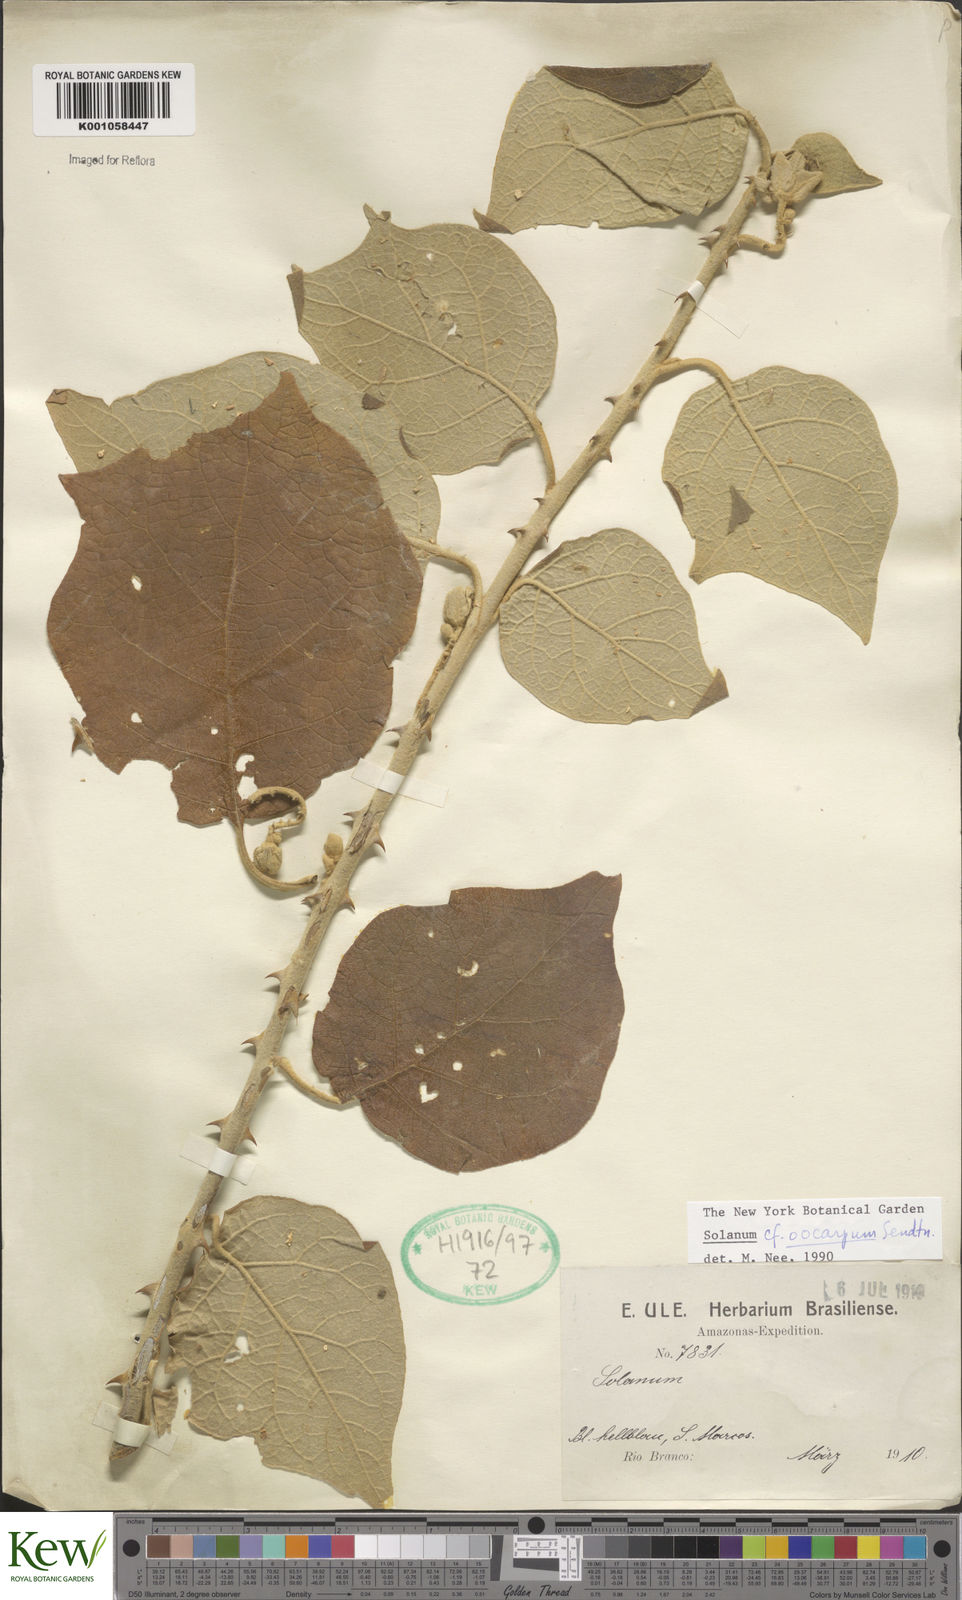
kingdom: Plantae
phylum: Tracheophyta
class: Magnoliopsida
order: Solanales
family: Solanaceae
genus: Solanum
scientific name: Solanum oocarpum
